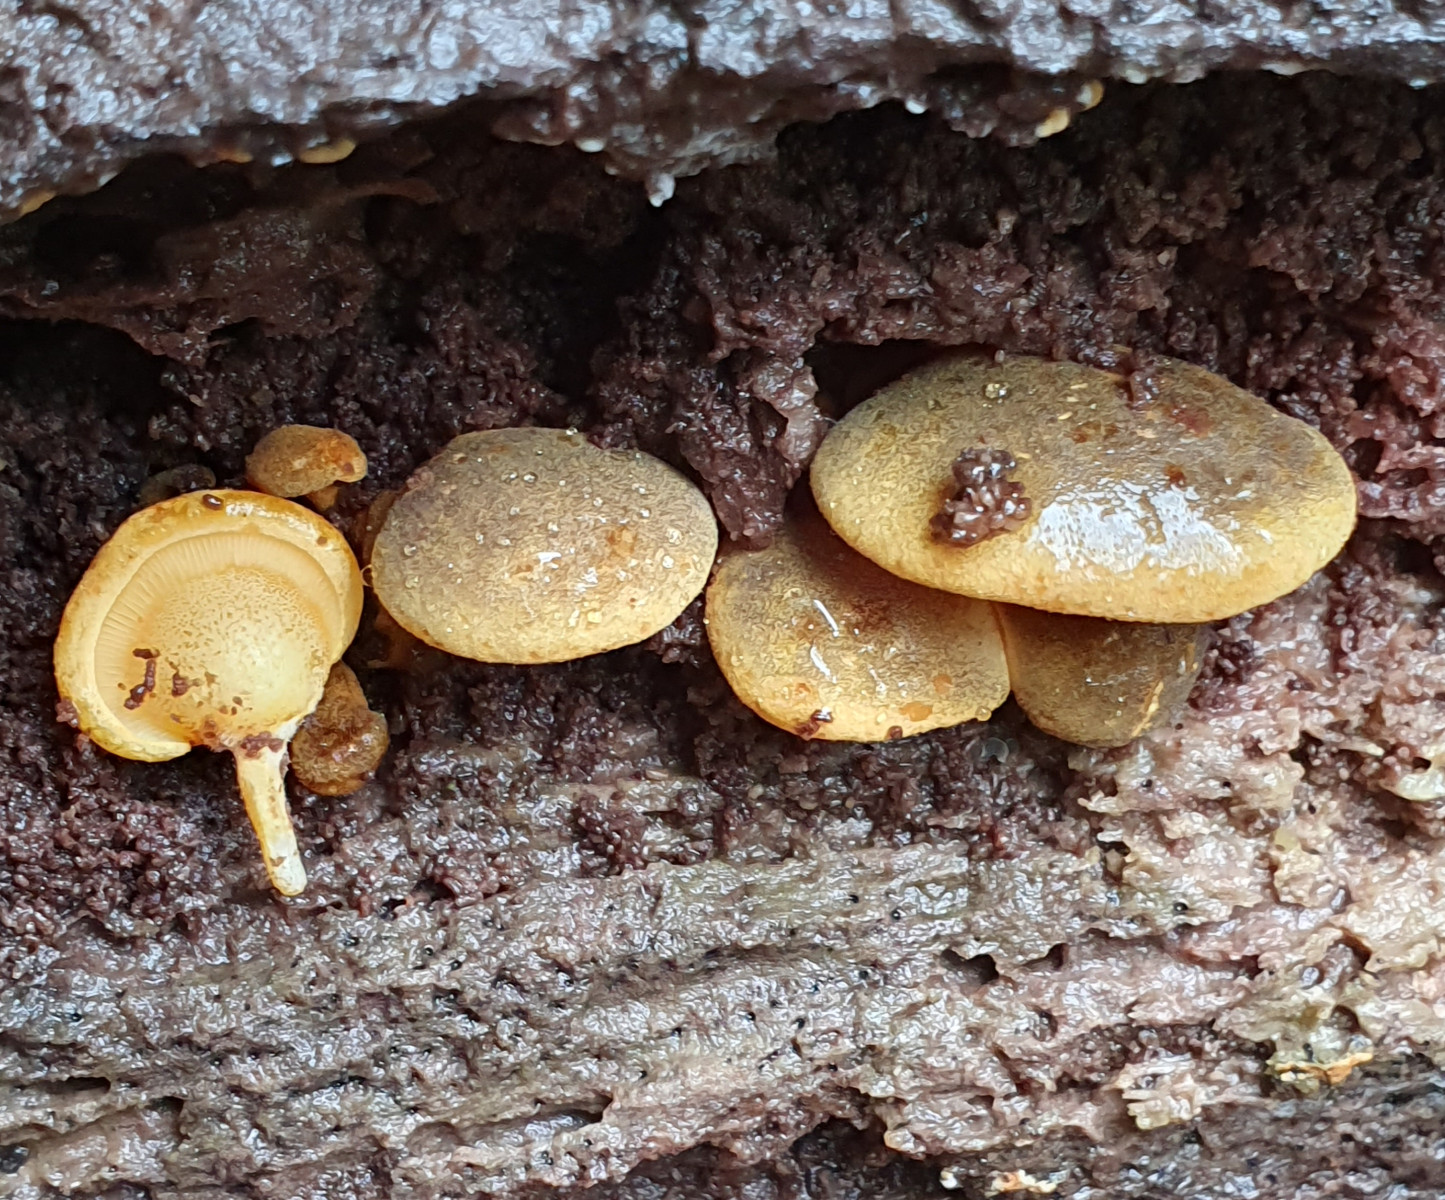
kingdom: Fungi
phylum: Basidiomycota
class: Agaricomycetes
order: Agaricales
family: Sarcomyxaceae
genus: Sarcomyxa
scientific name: Sarcomyxa serotina
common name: gummihat
